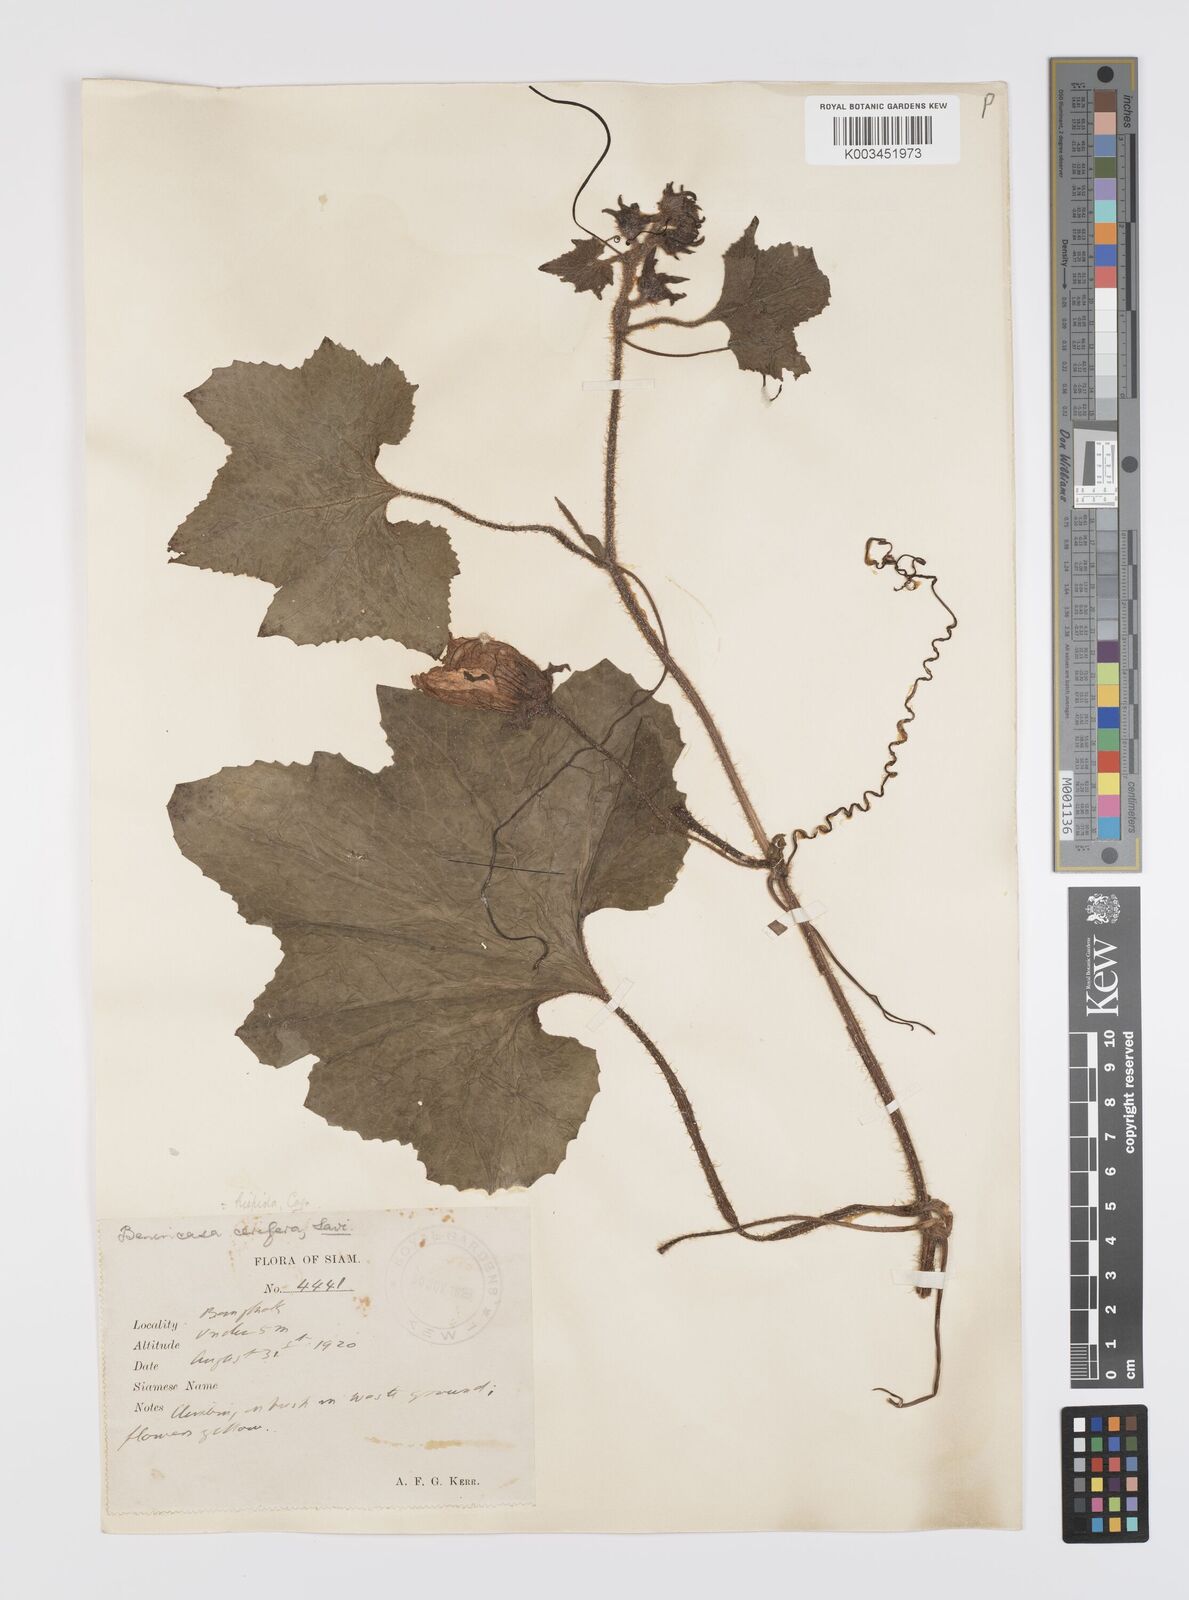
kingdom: Plantae
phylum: Tracheophyta
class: Magnoliopsida
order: Cucurbitales
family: Cucurbitaceae
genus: Benincasa
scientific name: Benincasa hispida
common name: Chinese-watermelon
